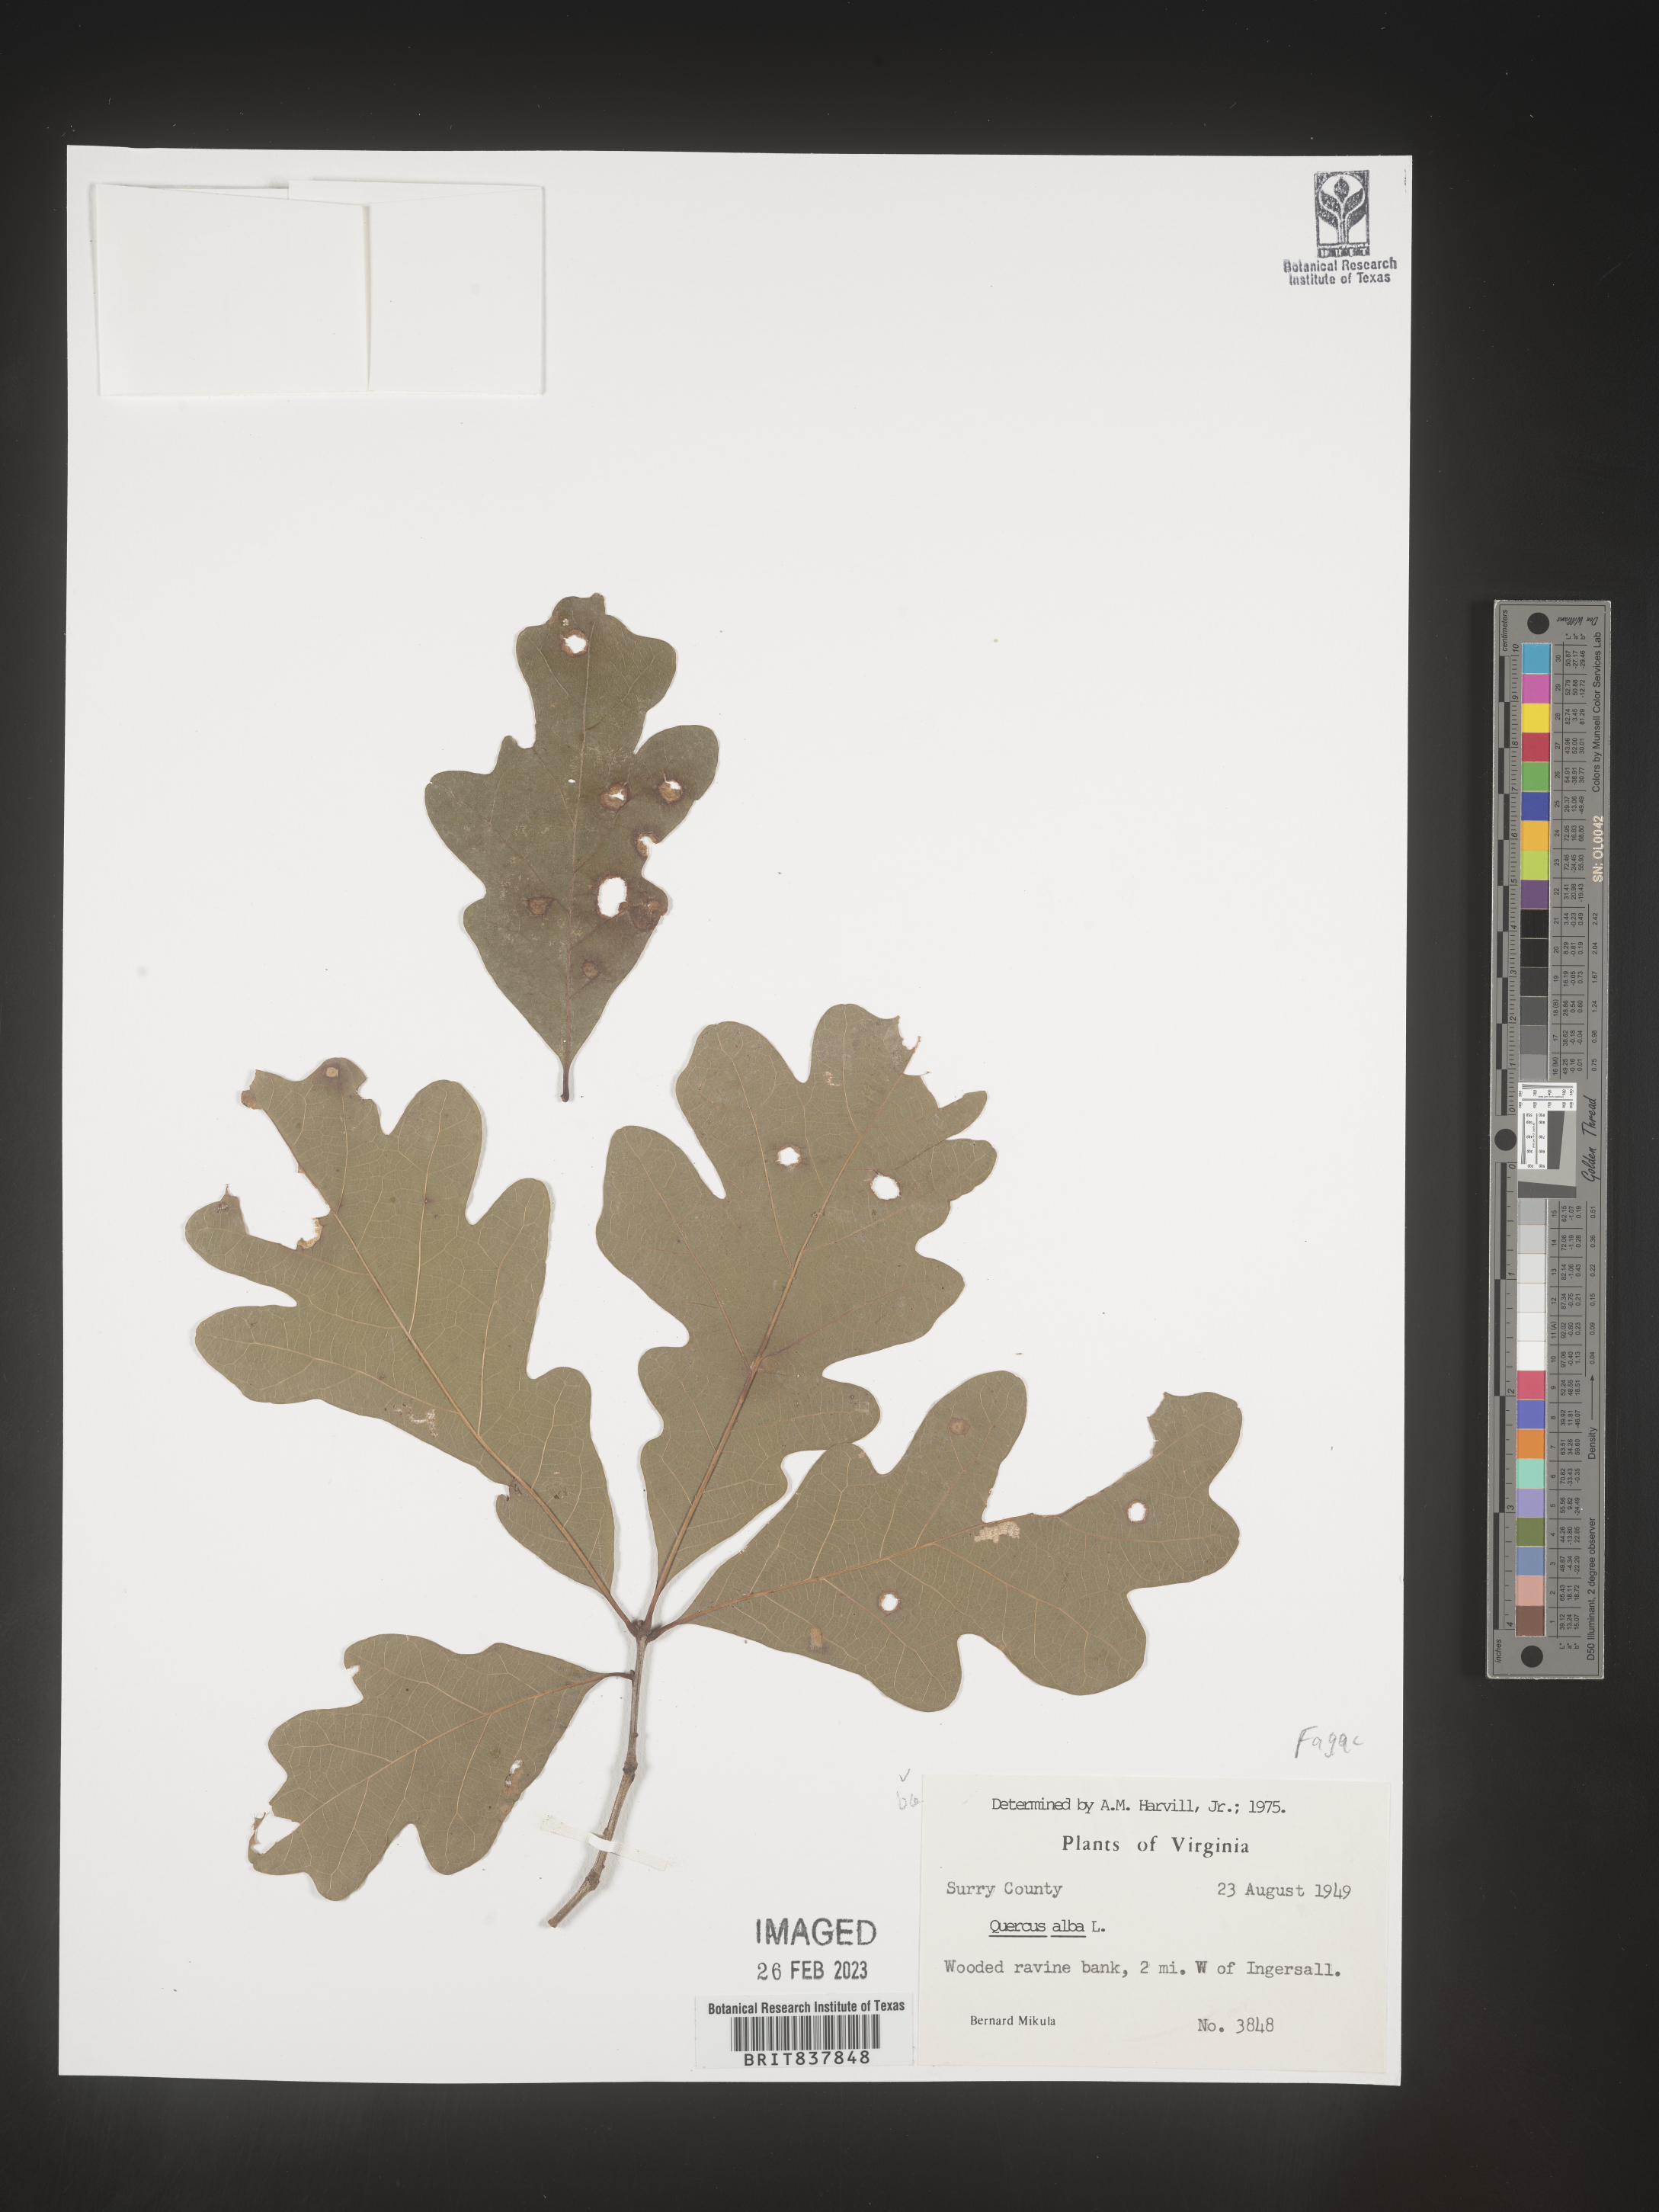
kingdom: Plantae
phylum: Tracheophyta
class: Magnoliopsida
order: Fagales
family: Fagaceae
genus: Quercus
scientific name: Quercus alba
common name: White oak
